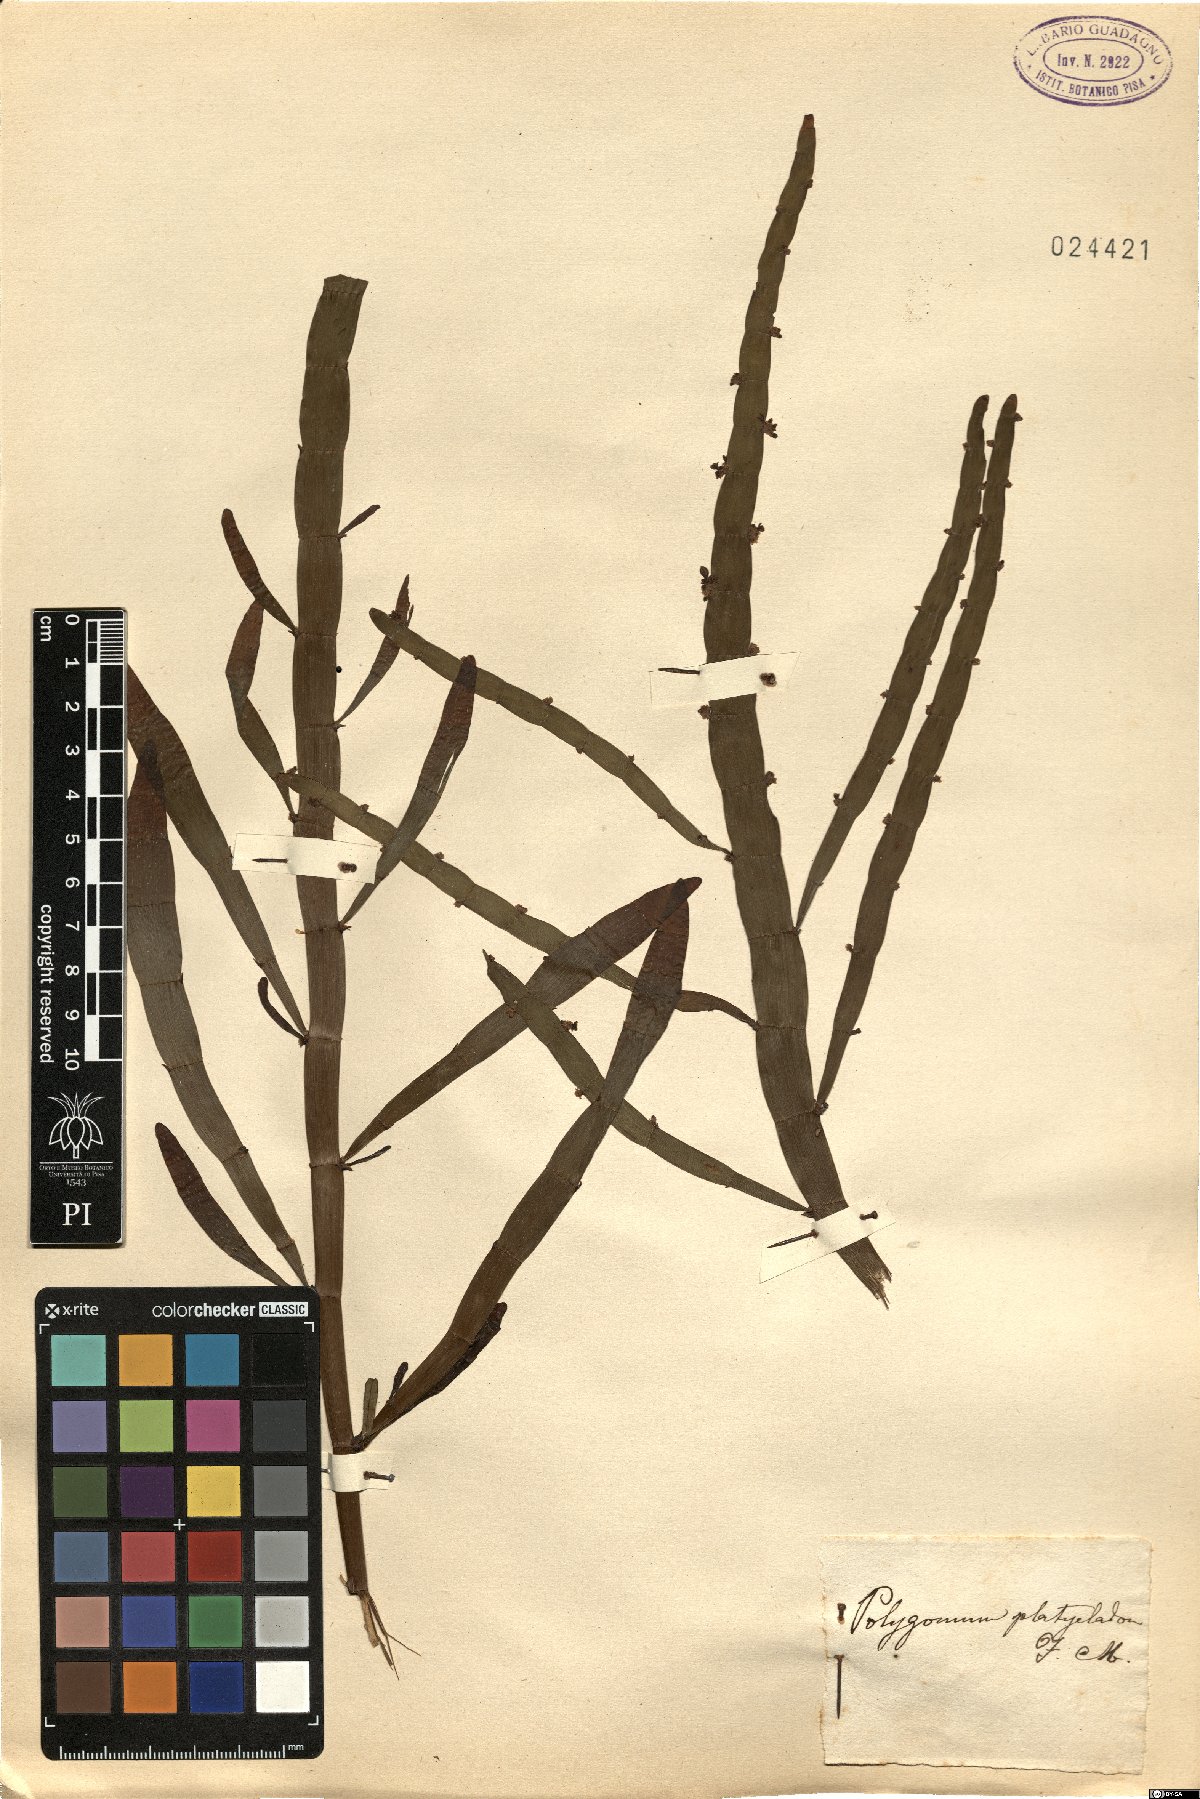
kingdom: Plantae
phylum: Tracheophyta
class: Magnoliopsida
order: Caryophyllales
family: Polygonaceae
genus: Muehlenbeckia
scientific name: Muehlenbeckia platyclada
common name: Tapewormplant
